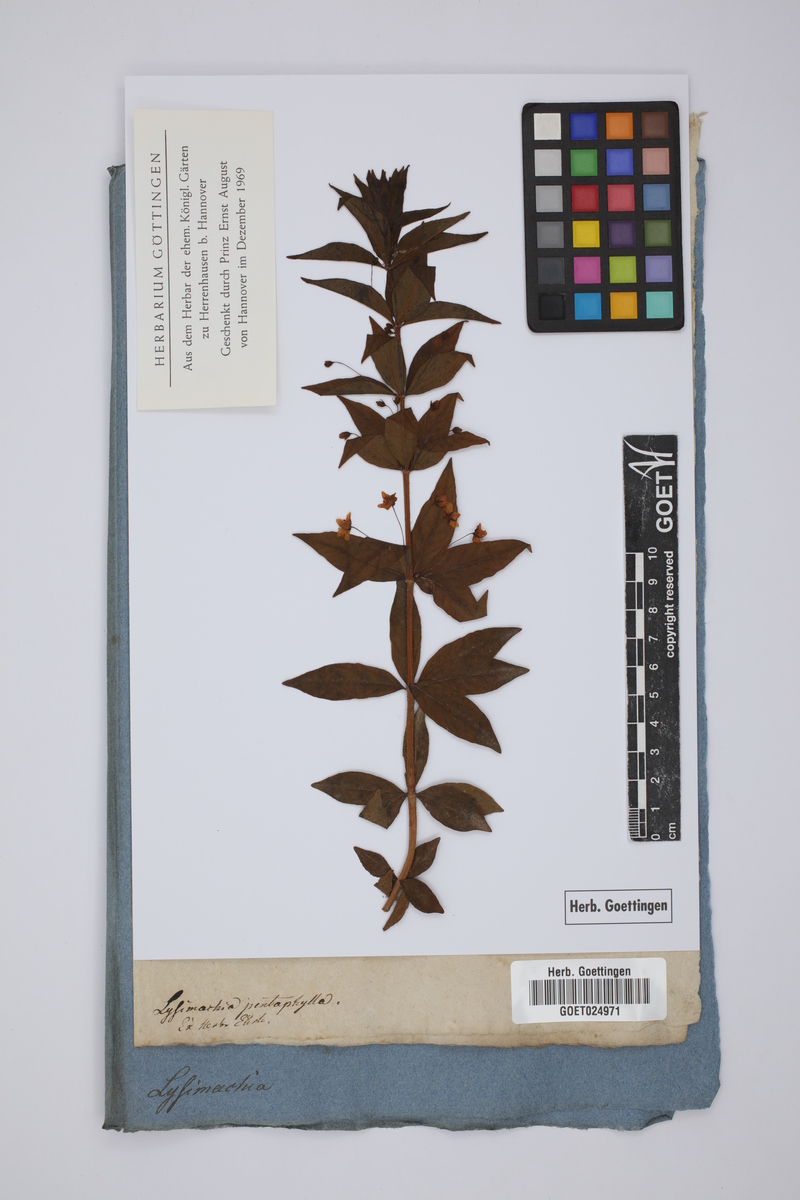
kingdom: Plantae
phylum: Tracheophyta
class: Magnoliopsida
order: Ericales
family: Primulaceae
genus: Lysimachia
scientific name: Lysimachia remyi
